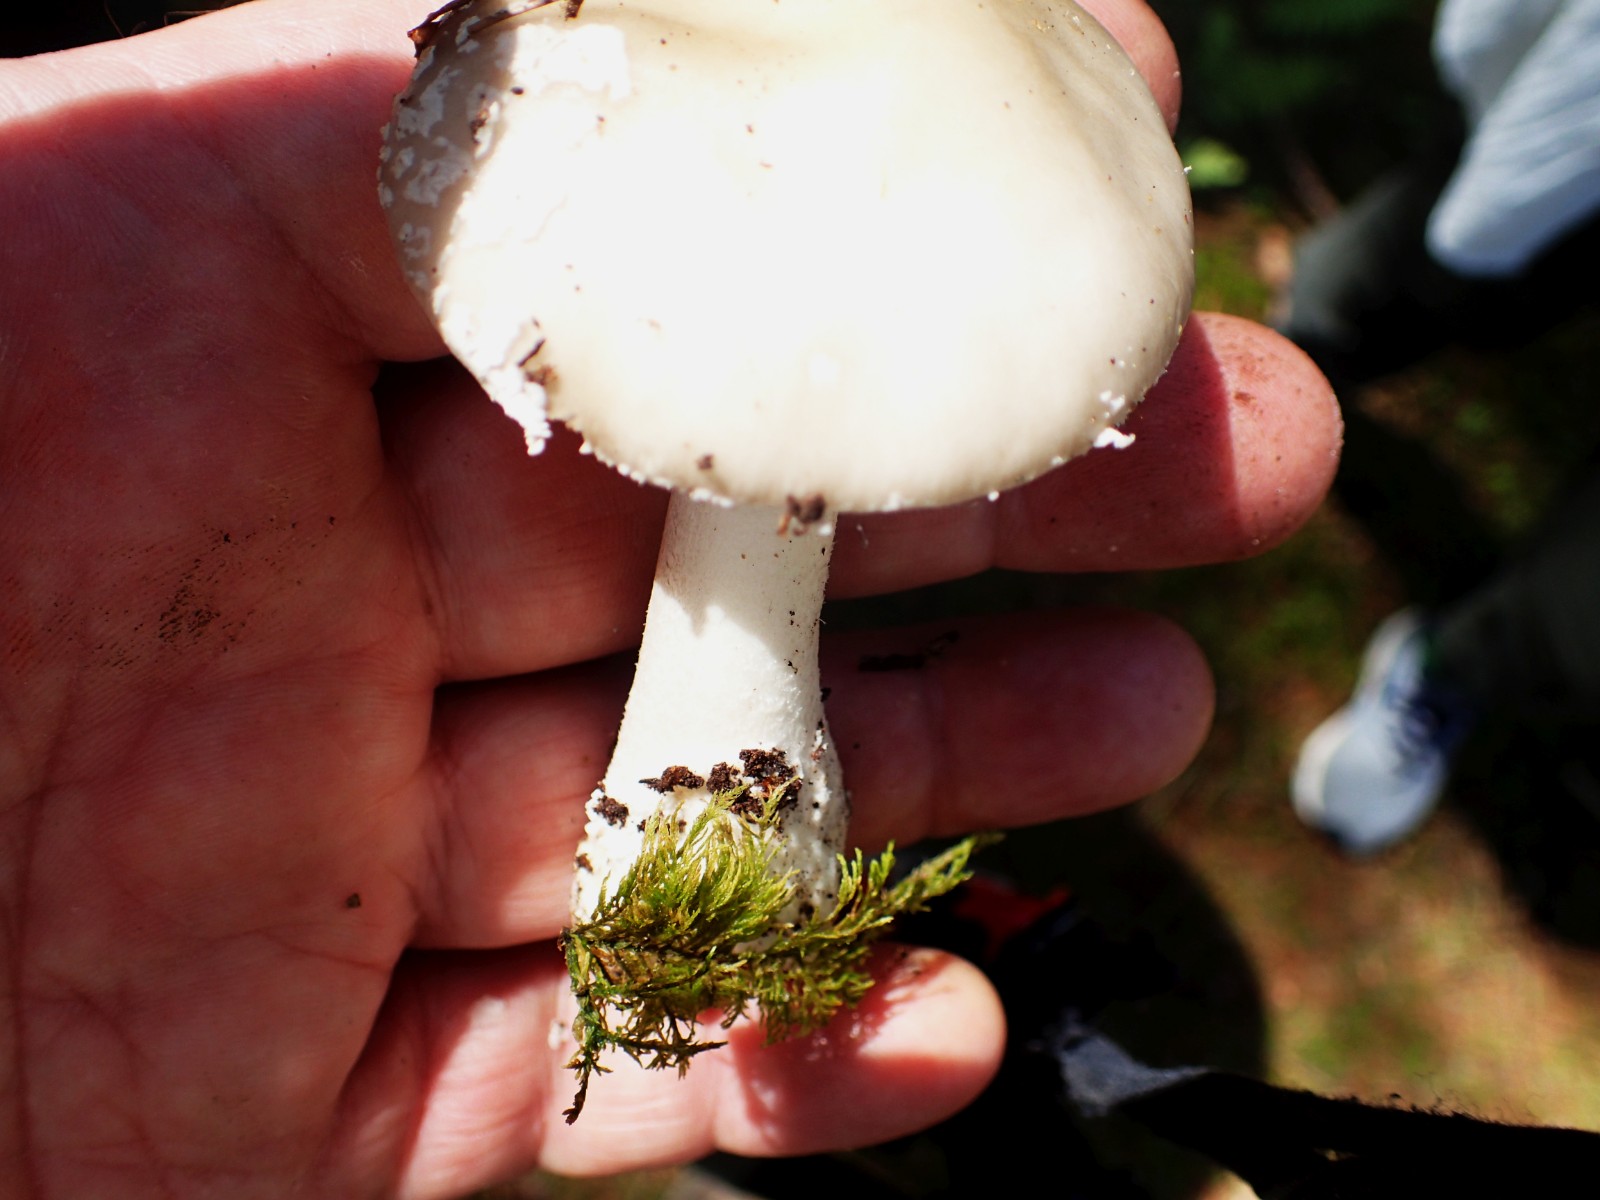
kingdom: Fungi
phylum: Basidiomycota
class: Agaricomycetes
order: Agaricales
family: Amanitaceae
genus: Amanita
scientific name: Amanita
